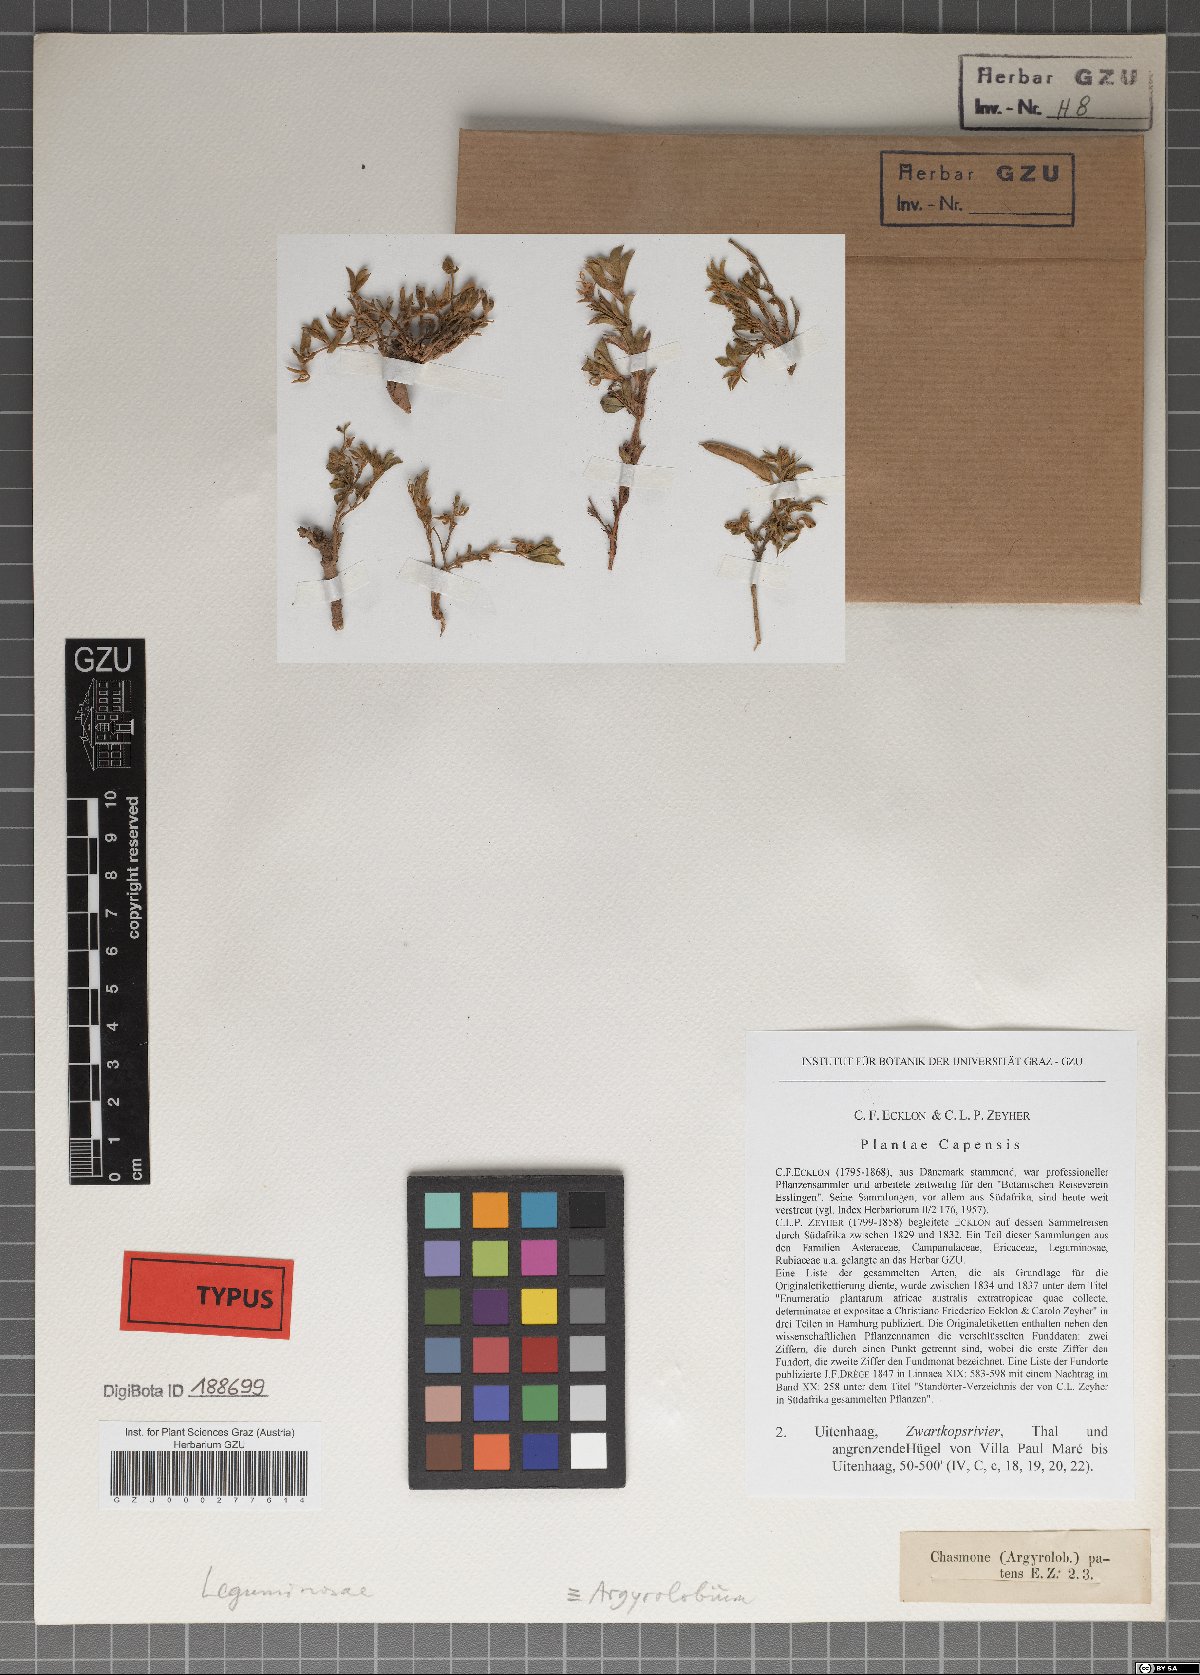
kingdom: Plantae
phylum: Tracheophyta
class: Magnoliopsida
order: Fabales
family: Fabaceae
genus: Argyrolobium
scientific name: Argyrolobium molle
